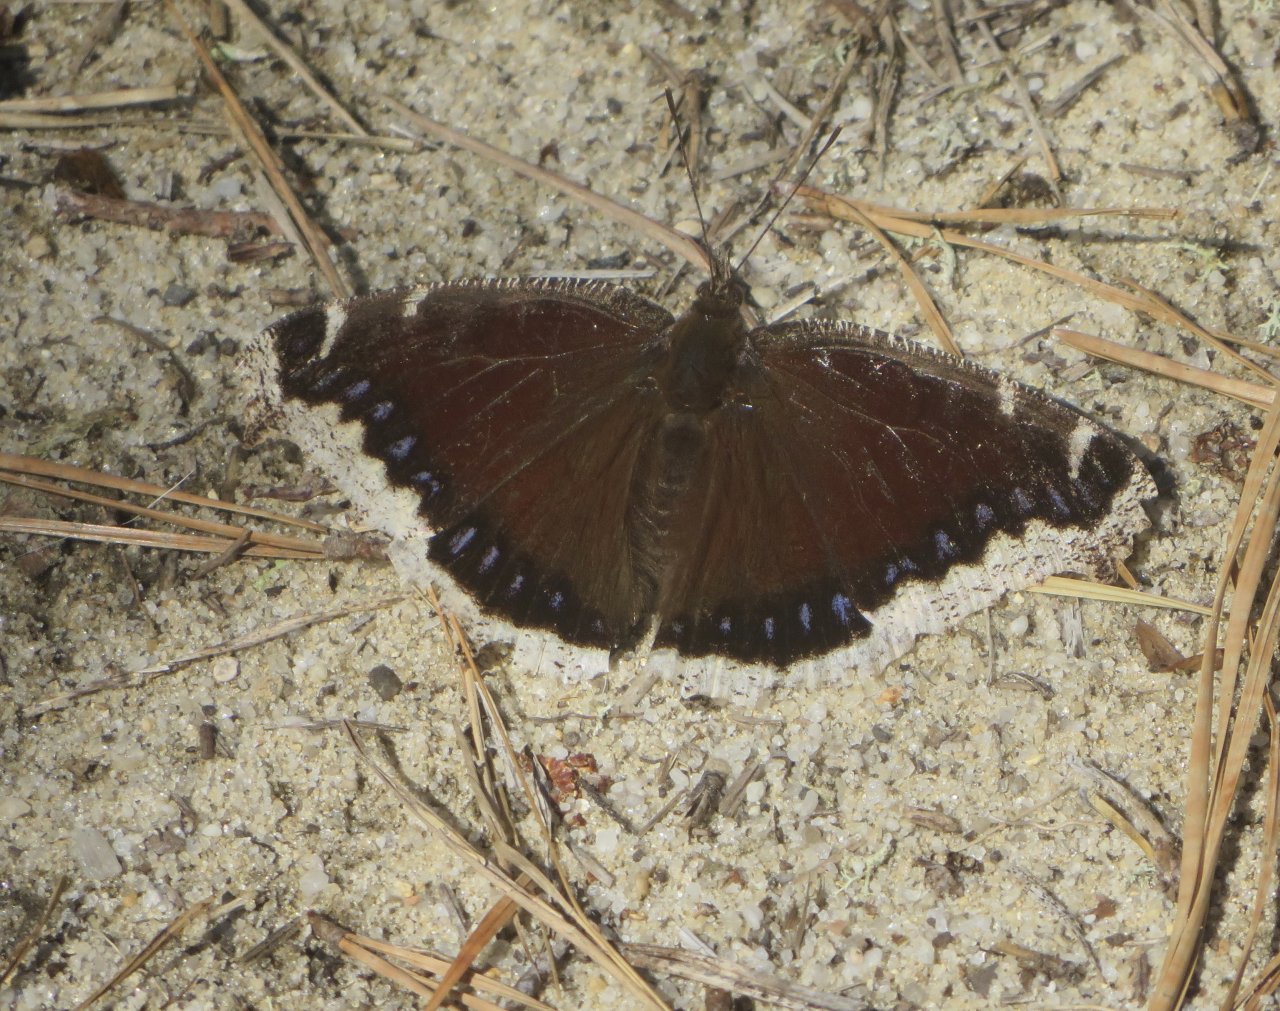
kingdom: Animalia
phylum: Arthropoda
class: Insecta
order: Lepidoptera
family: Nymphalidae
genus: Nymphalis
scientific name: Nymphalis antiopa
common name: Mourning Cloak
